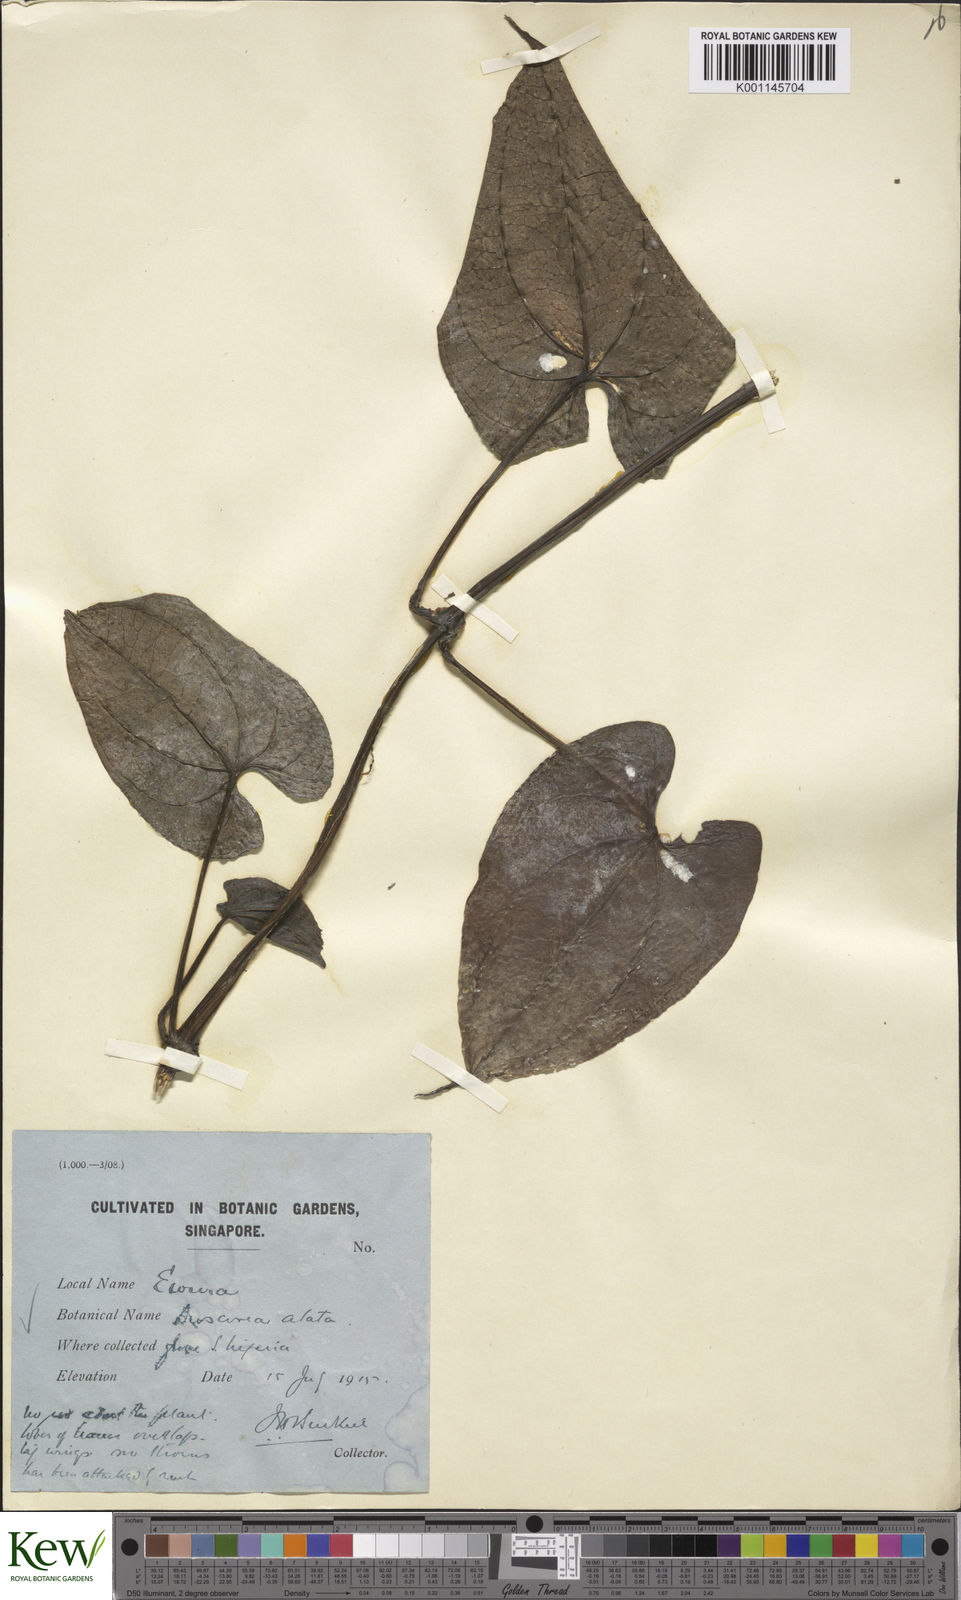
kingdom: Plantae
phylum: Tracheophyta
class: Liliopsida
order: Dioscoreales
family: Dioscoreaceae
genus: Dioscorea
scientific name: Dioscorea alata
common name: Water yam
